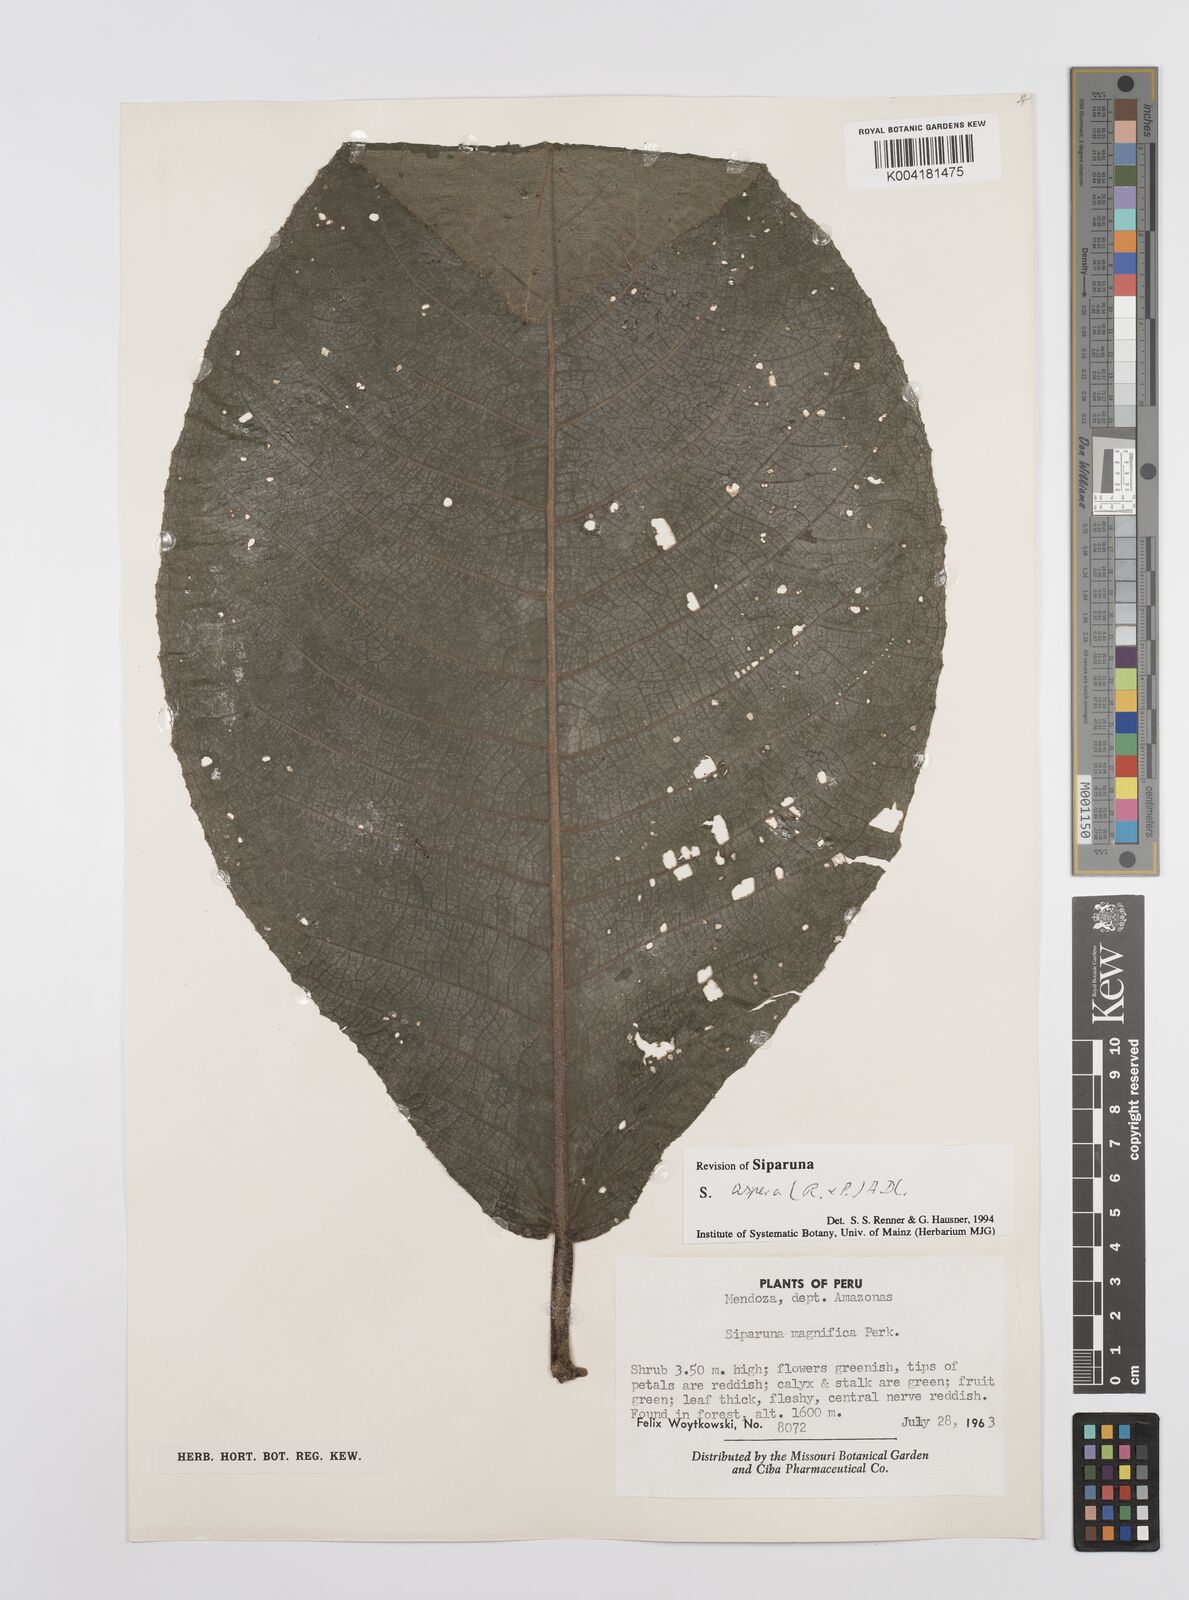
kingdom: Plantae
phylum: Tracheophyta
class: Magnoliopsida
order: Laurales
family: Siparunaceae
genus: Siparuna
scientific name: Siparuna aspera
